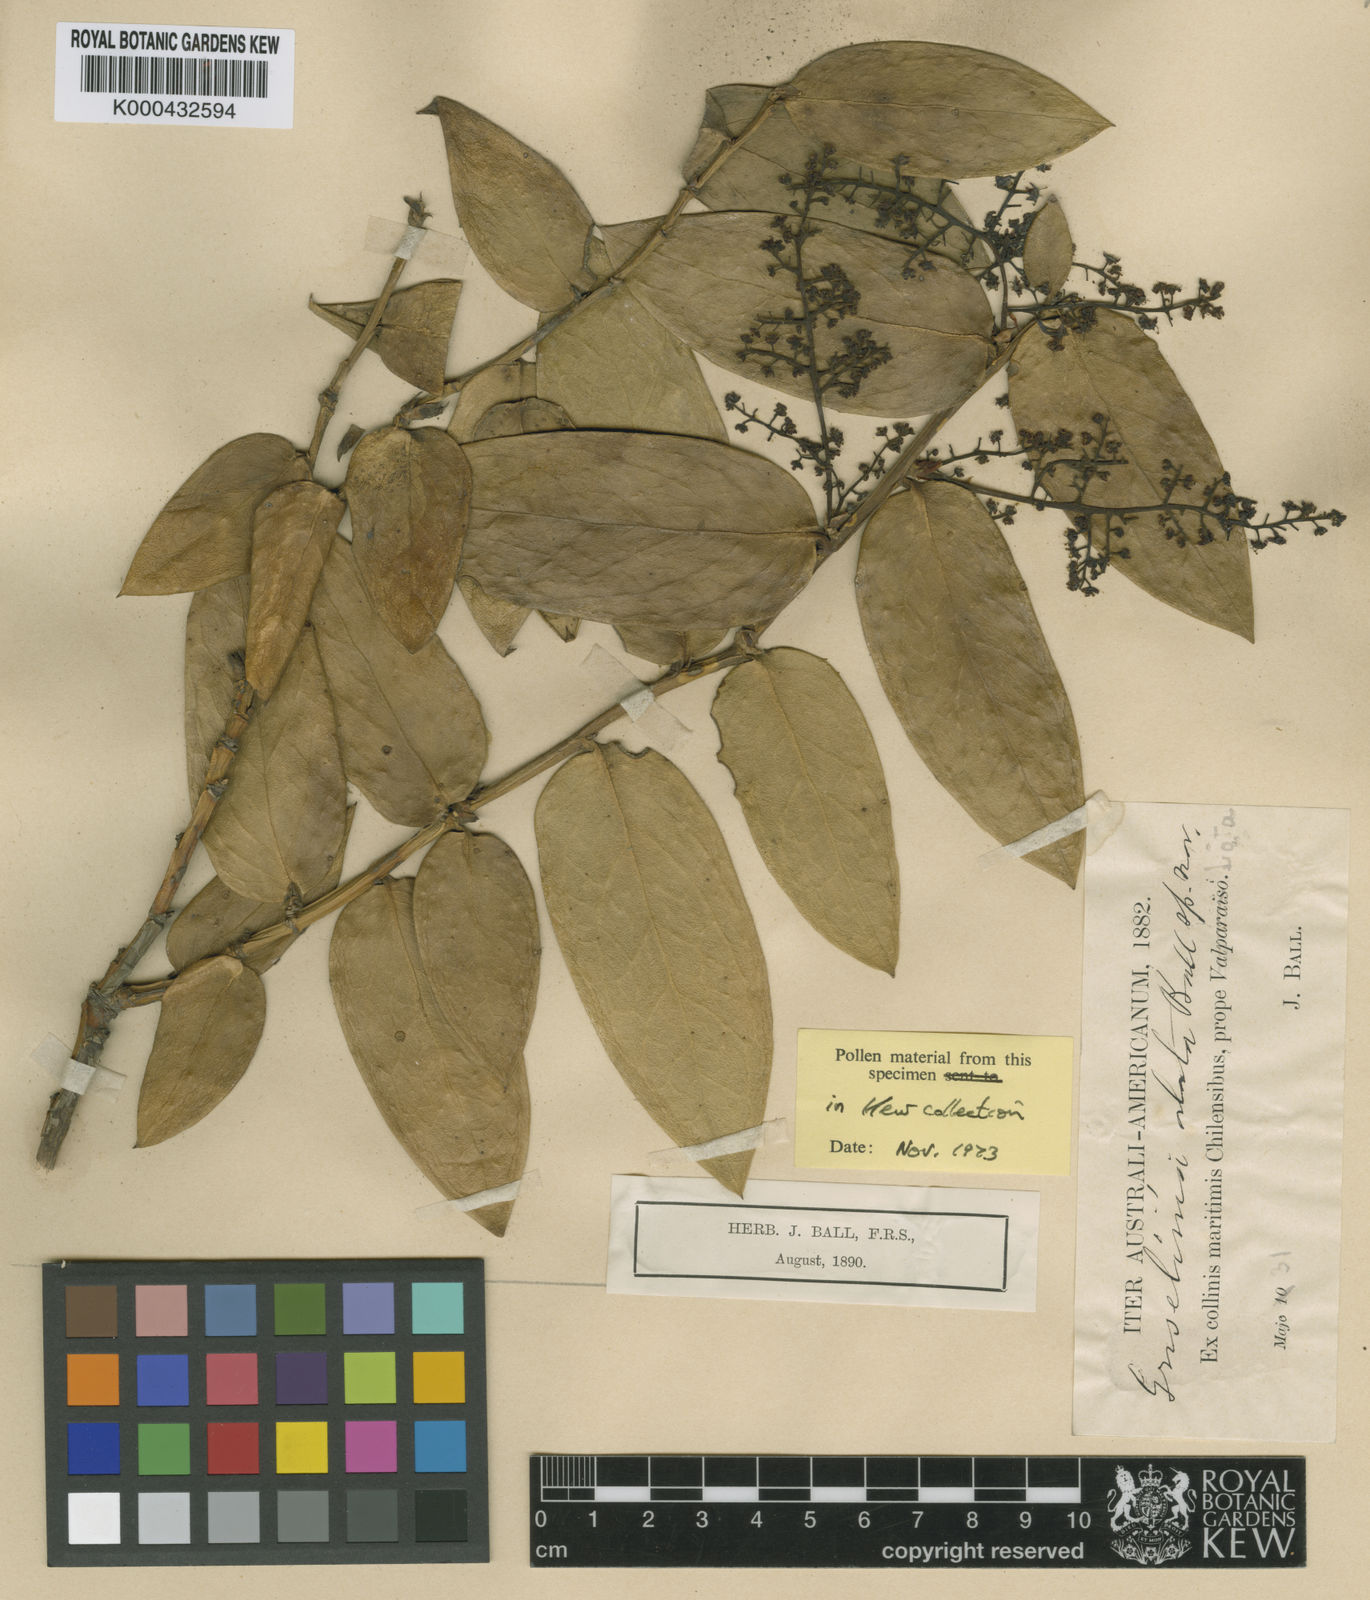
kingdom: Plantae
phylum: Tracheophyta
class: Magnoliopsida
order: Apiales
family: Griseliniaceae
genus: Griselinia
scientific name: Griselinia scandens
